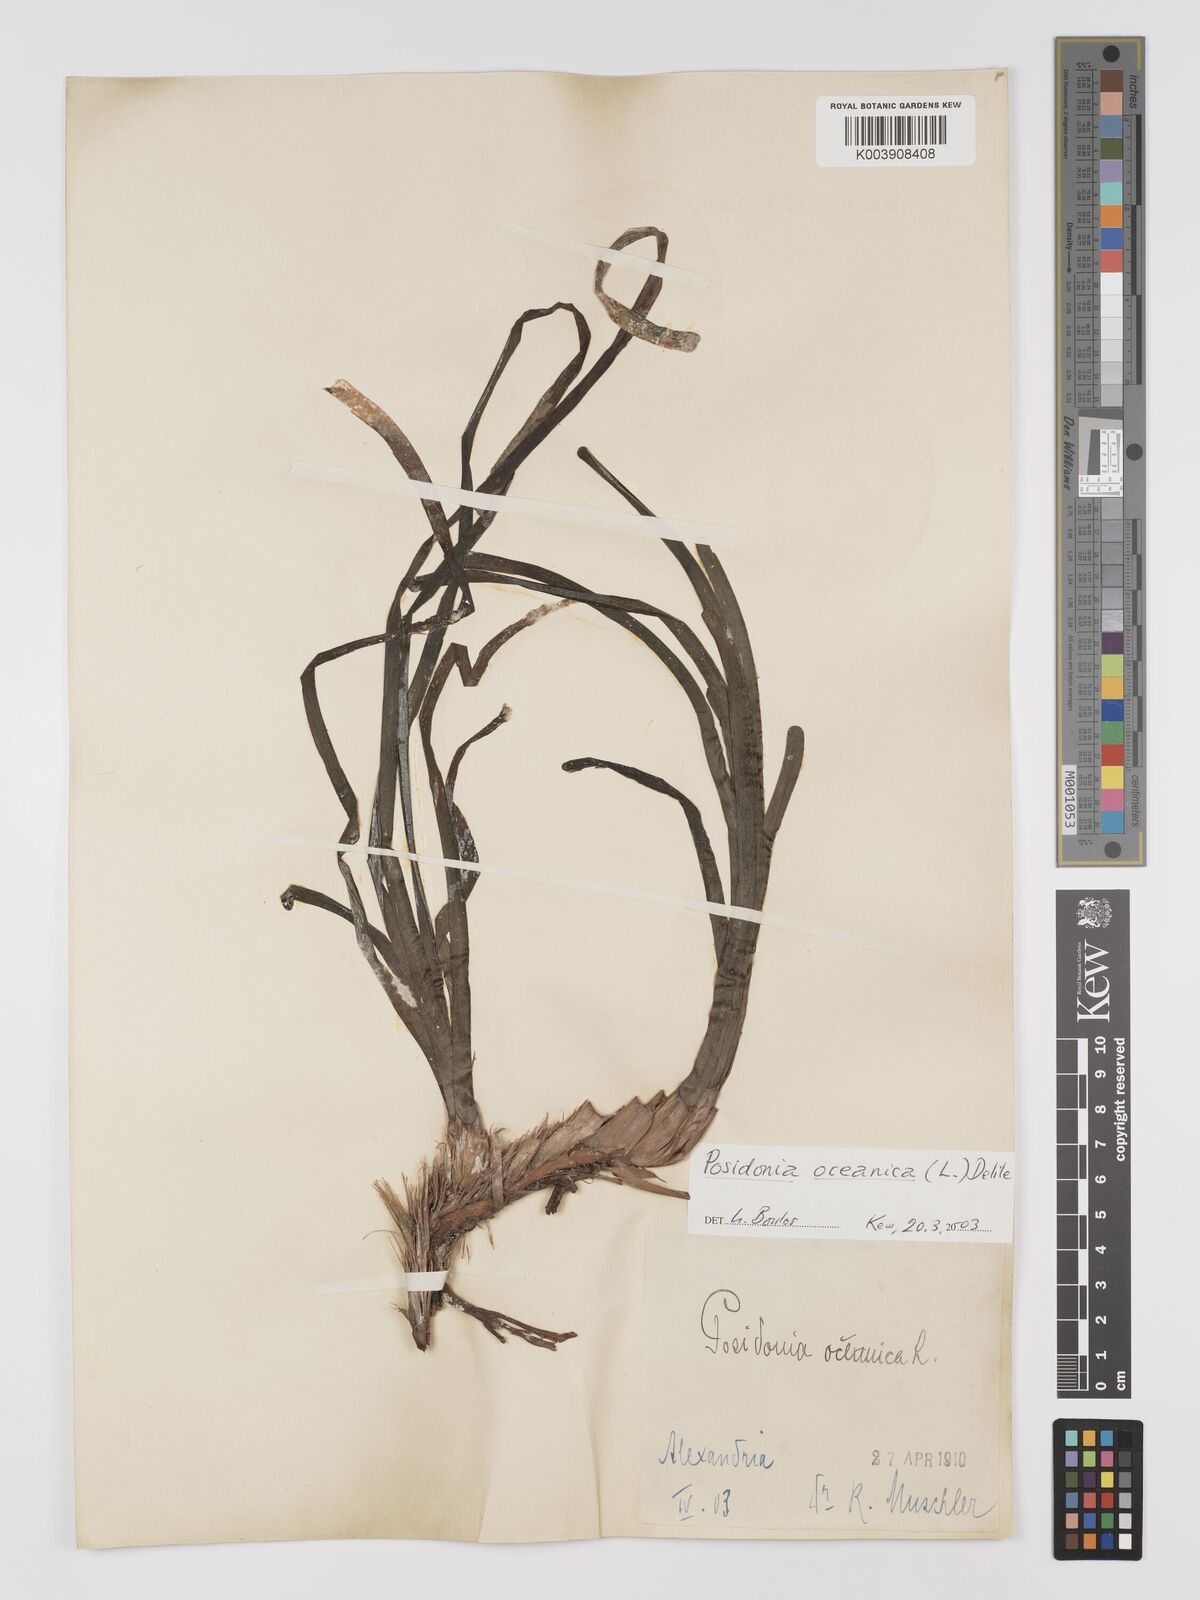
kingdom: Plantae
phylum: Tracheophyta
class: Liliopsida
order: Alismatales
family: Posidoniaceae
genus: Posidonia
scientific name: Posidonia oceanica
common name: Mediterranean tapeweed
